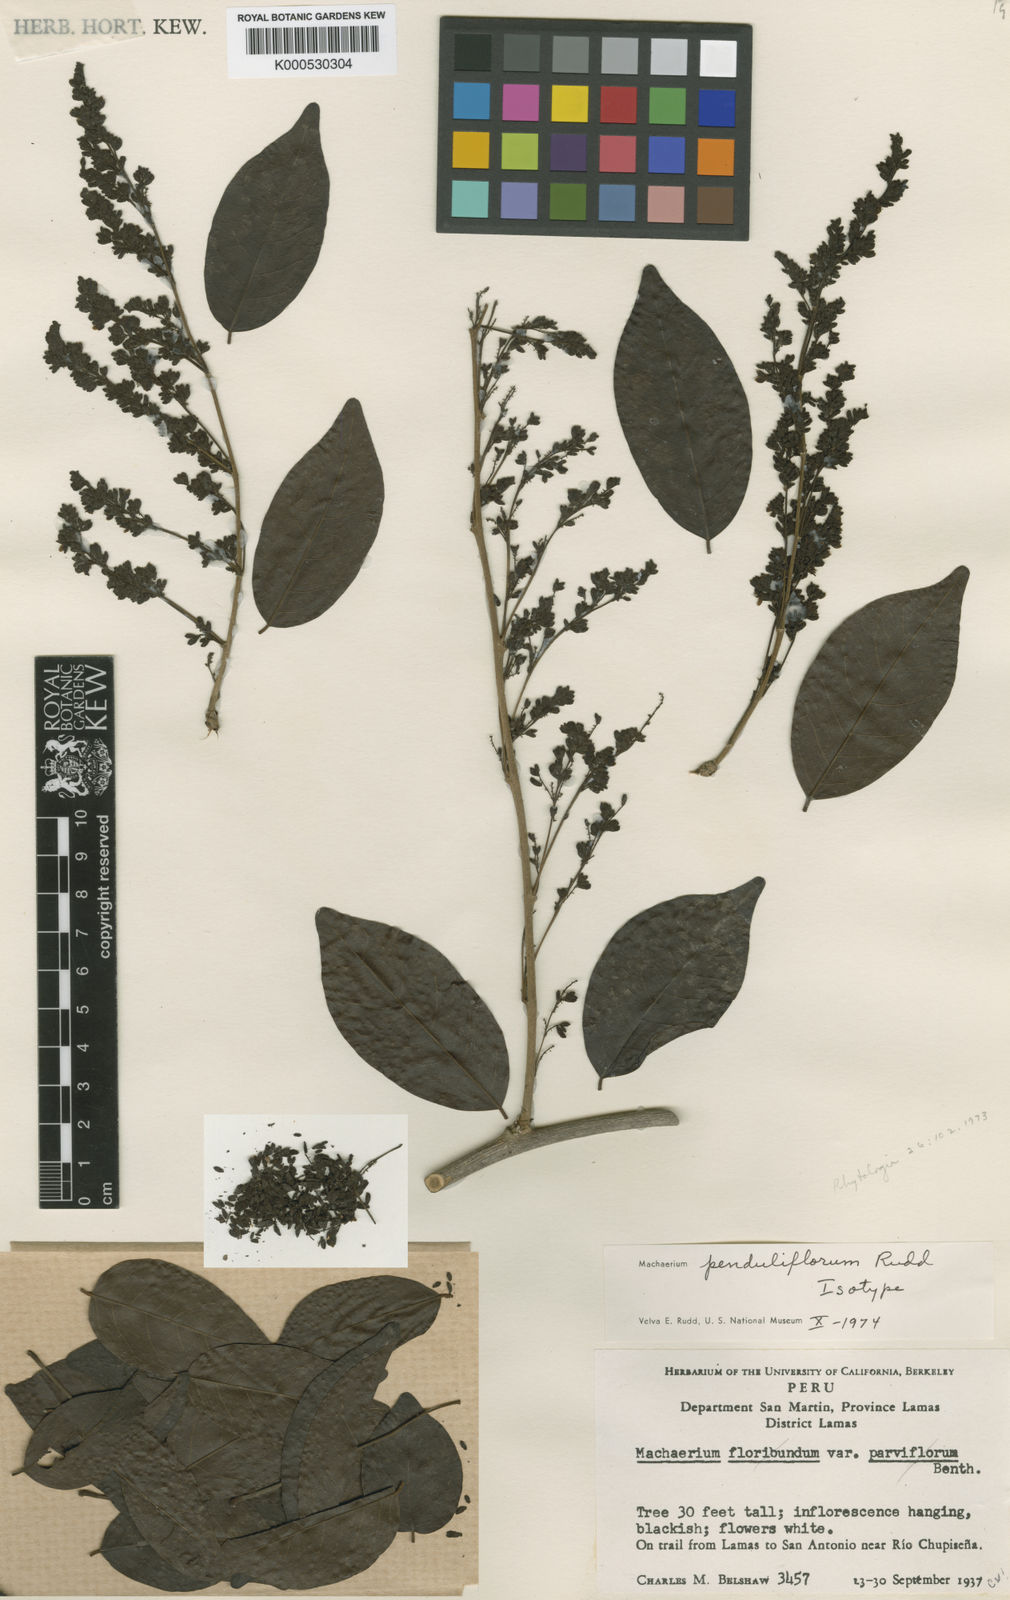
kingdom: Plantae
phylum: Tracheophyta
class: Magnoliopsida
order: Fabales
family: Fabaceae
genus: Machaerium
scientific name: Machaerium penduliflorum
